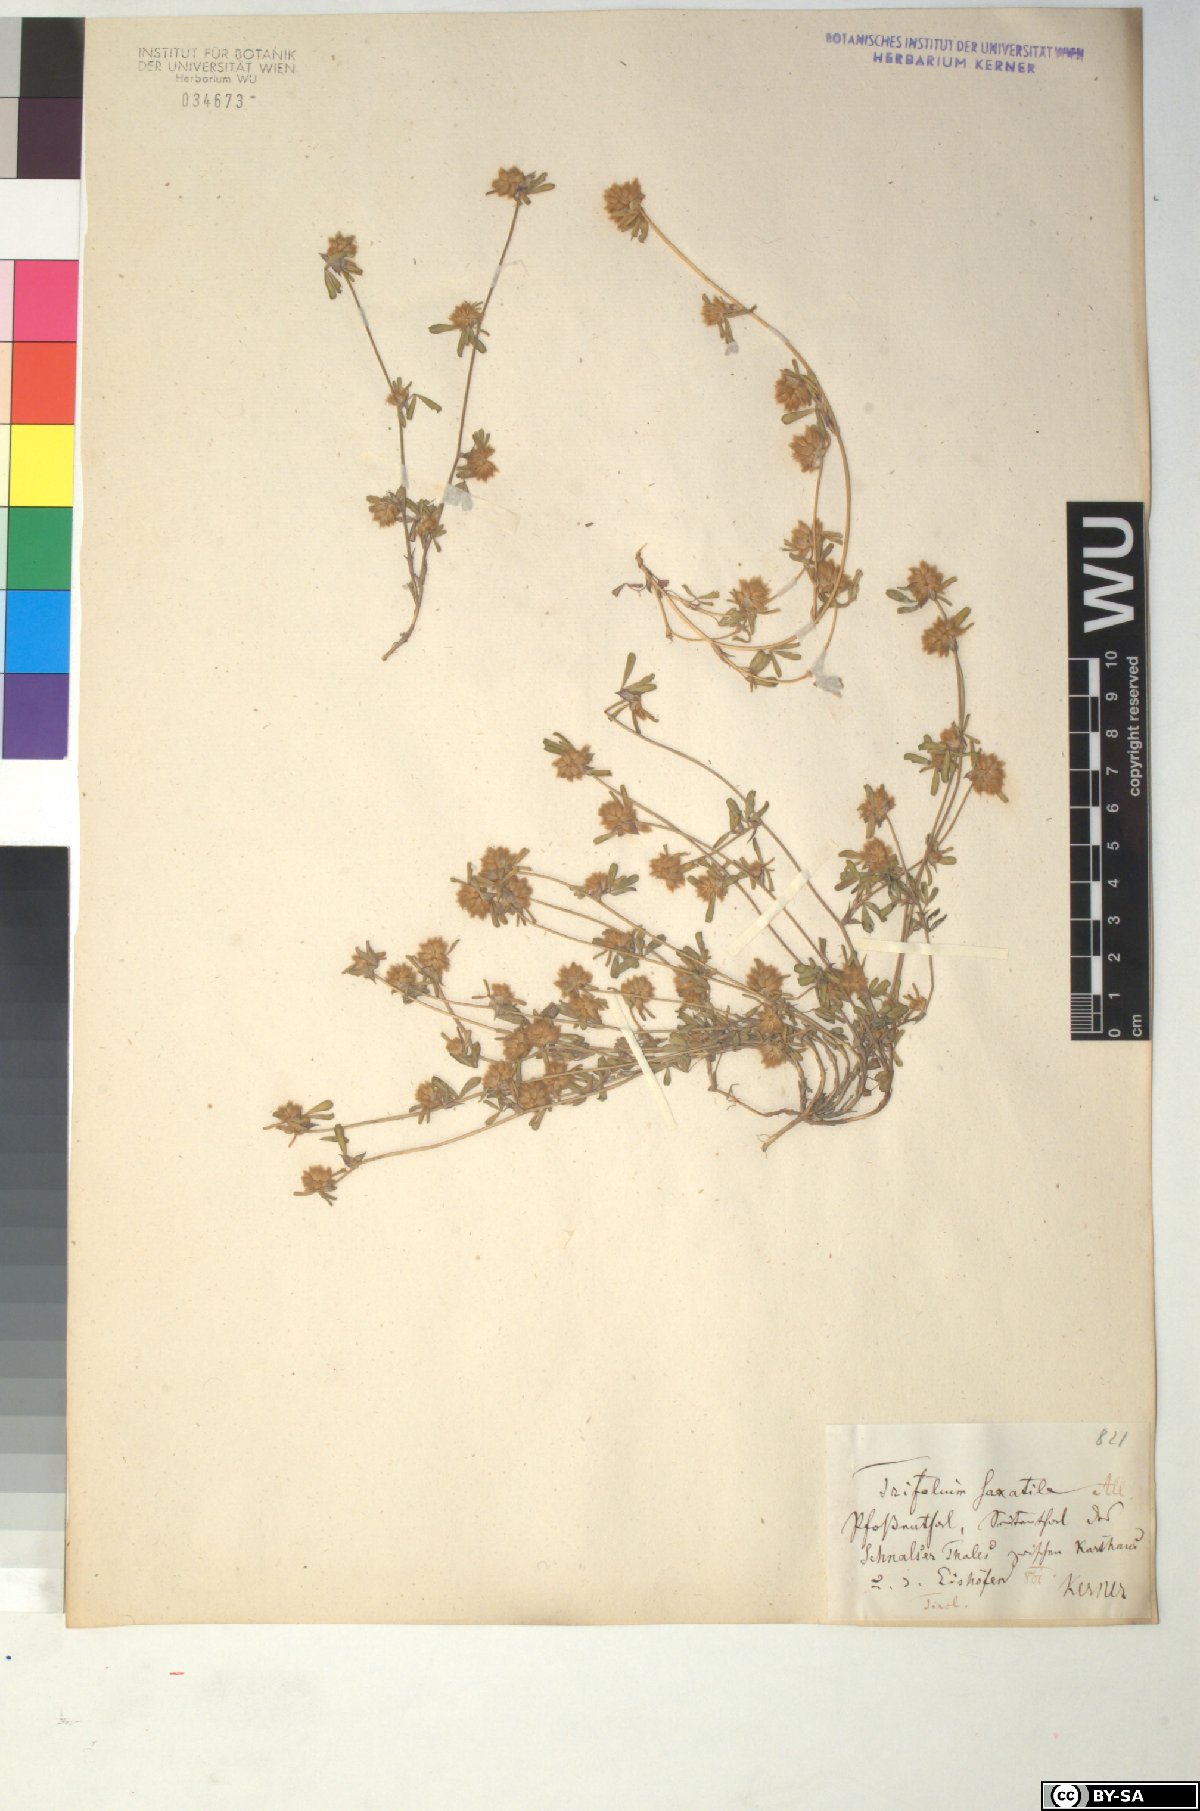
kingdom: Plantae
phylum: Tracheophyta
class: Magnoliopsida
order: Fabales
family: Fabaceae
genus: Trifolium
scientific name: Trifolium saxatile
